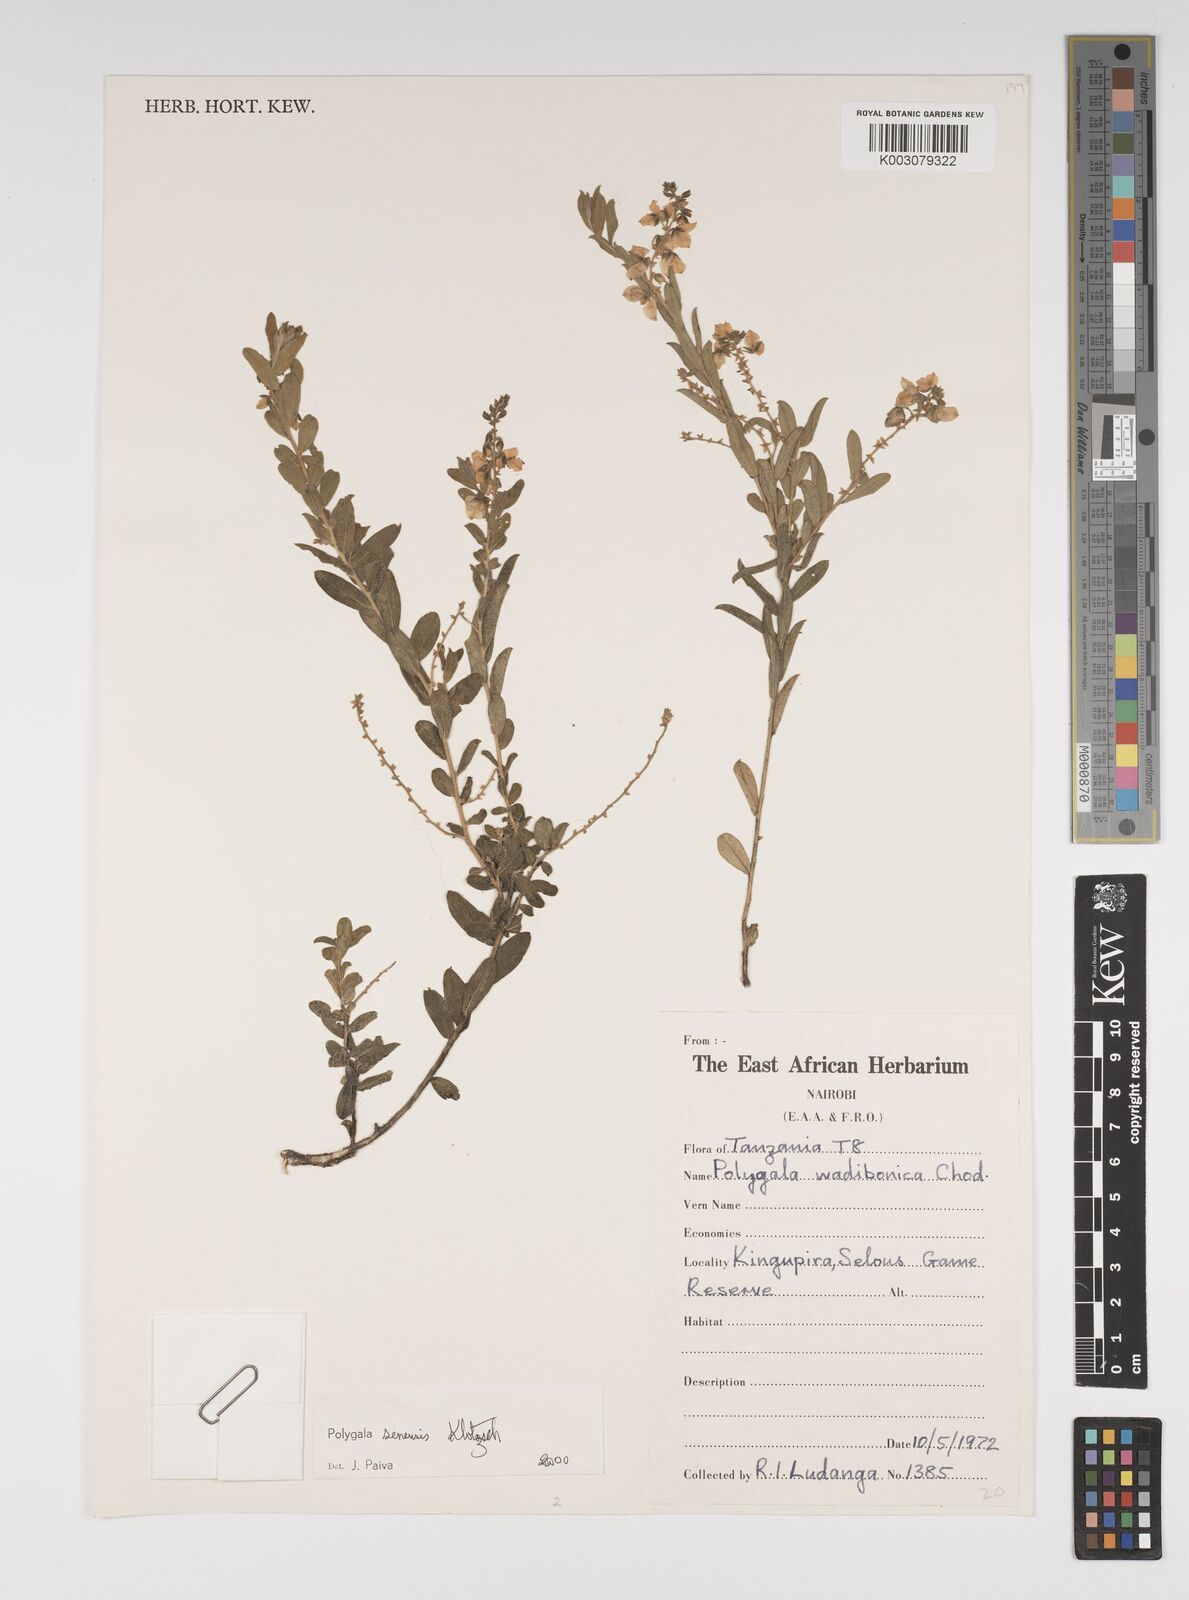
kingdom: Plantae
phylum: Tracheophyta
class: Magnoliopsida
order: Fabales
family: Polygalaceae
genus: Polygala
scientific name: Polygala senensis
